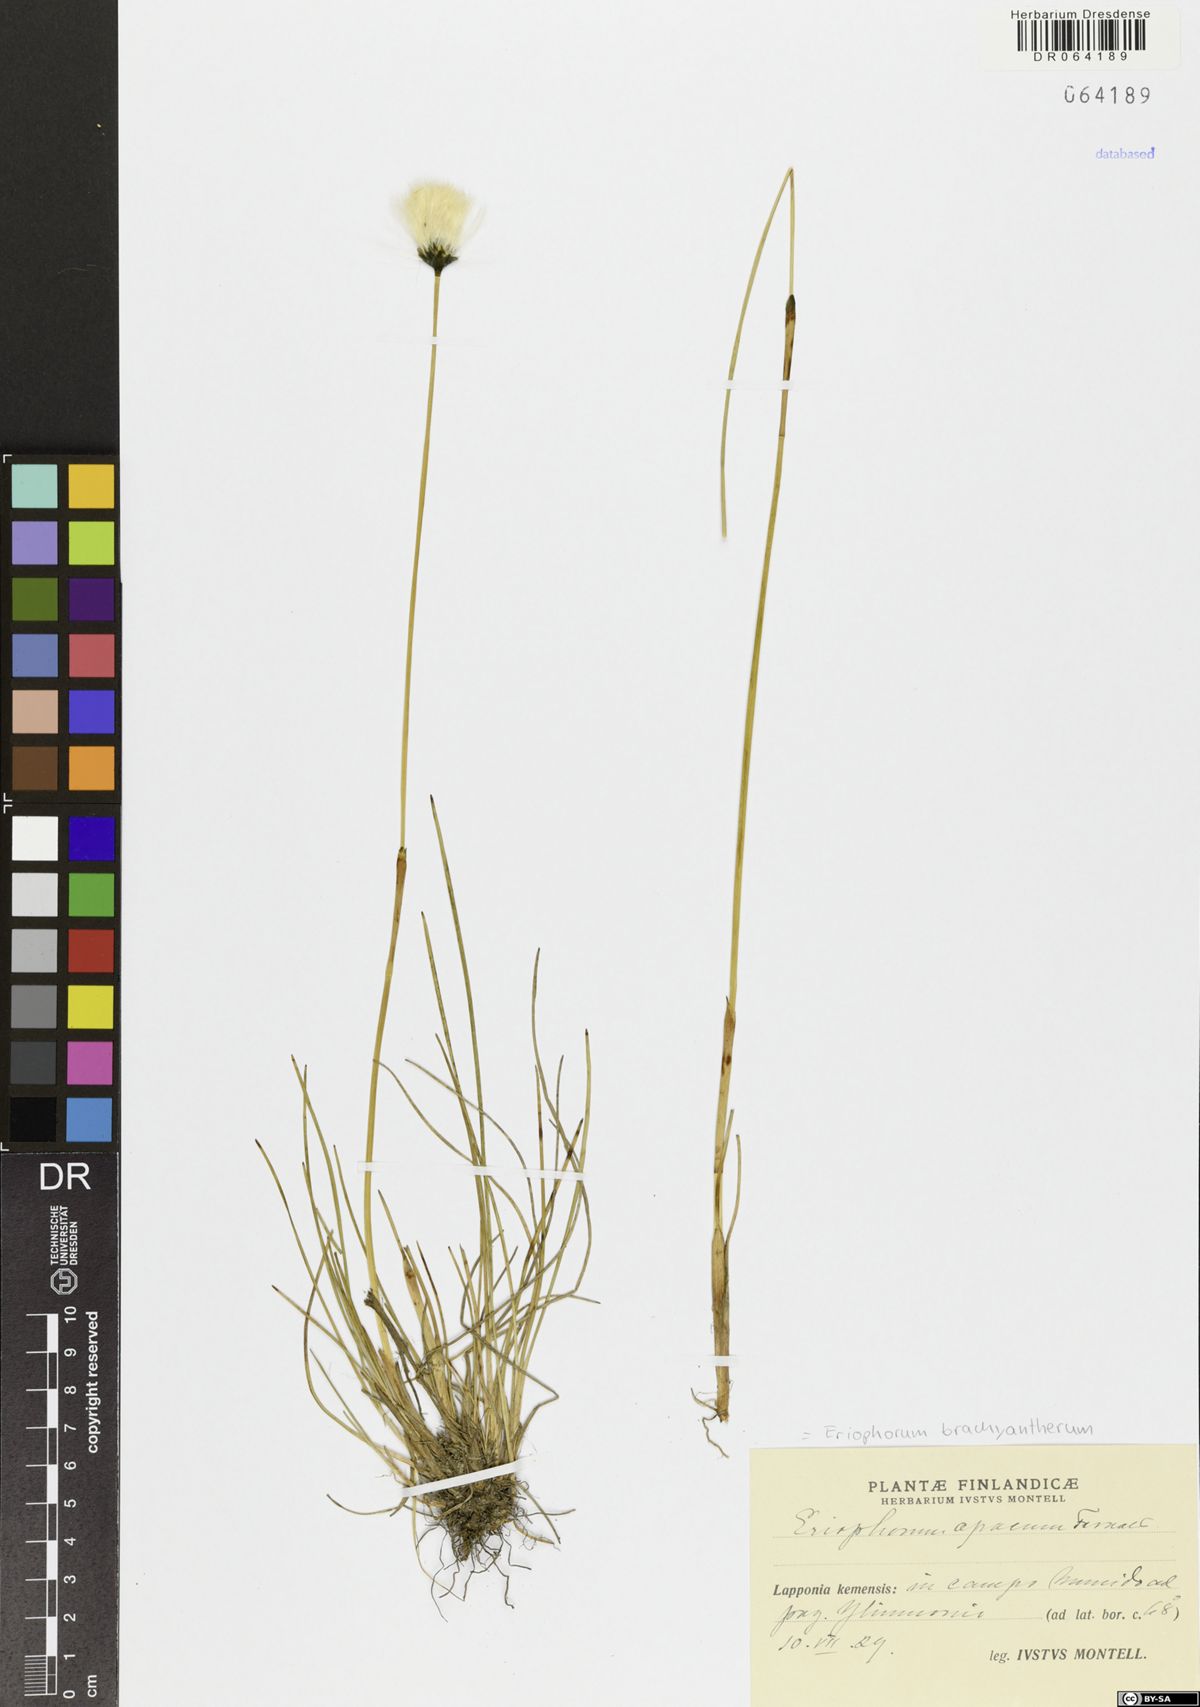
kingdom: Plantae
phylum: Tracheophyta
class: Liliopsida
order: Poales
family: Cyperaceae
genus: Eriophorum
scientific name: Eriophorum brachyantherum
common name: Closed-sheathed cottongrass
